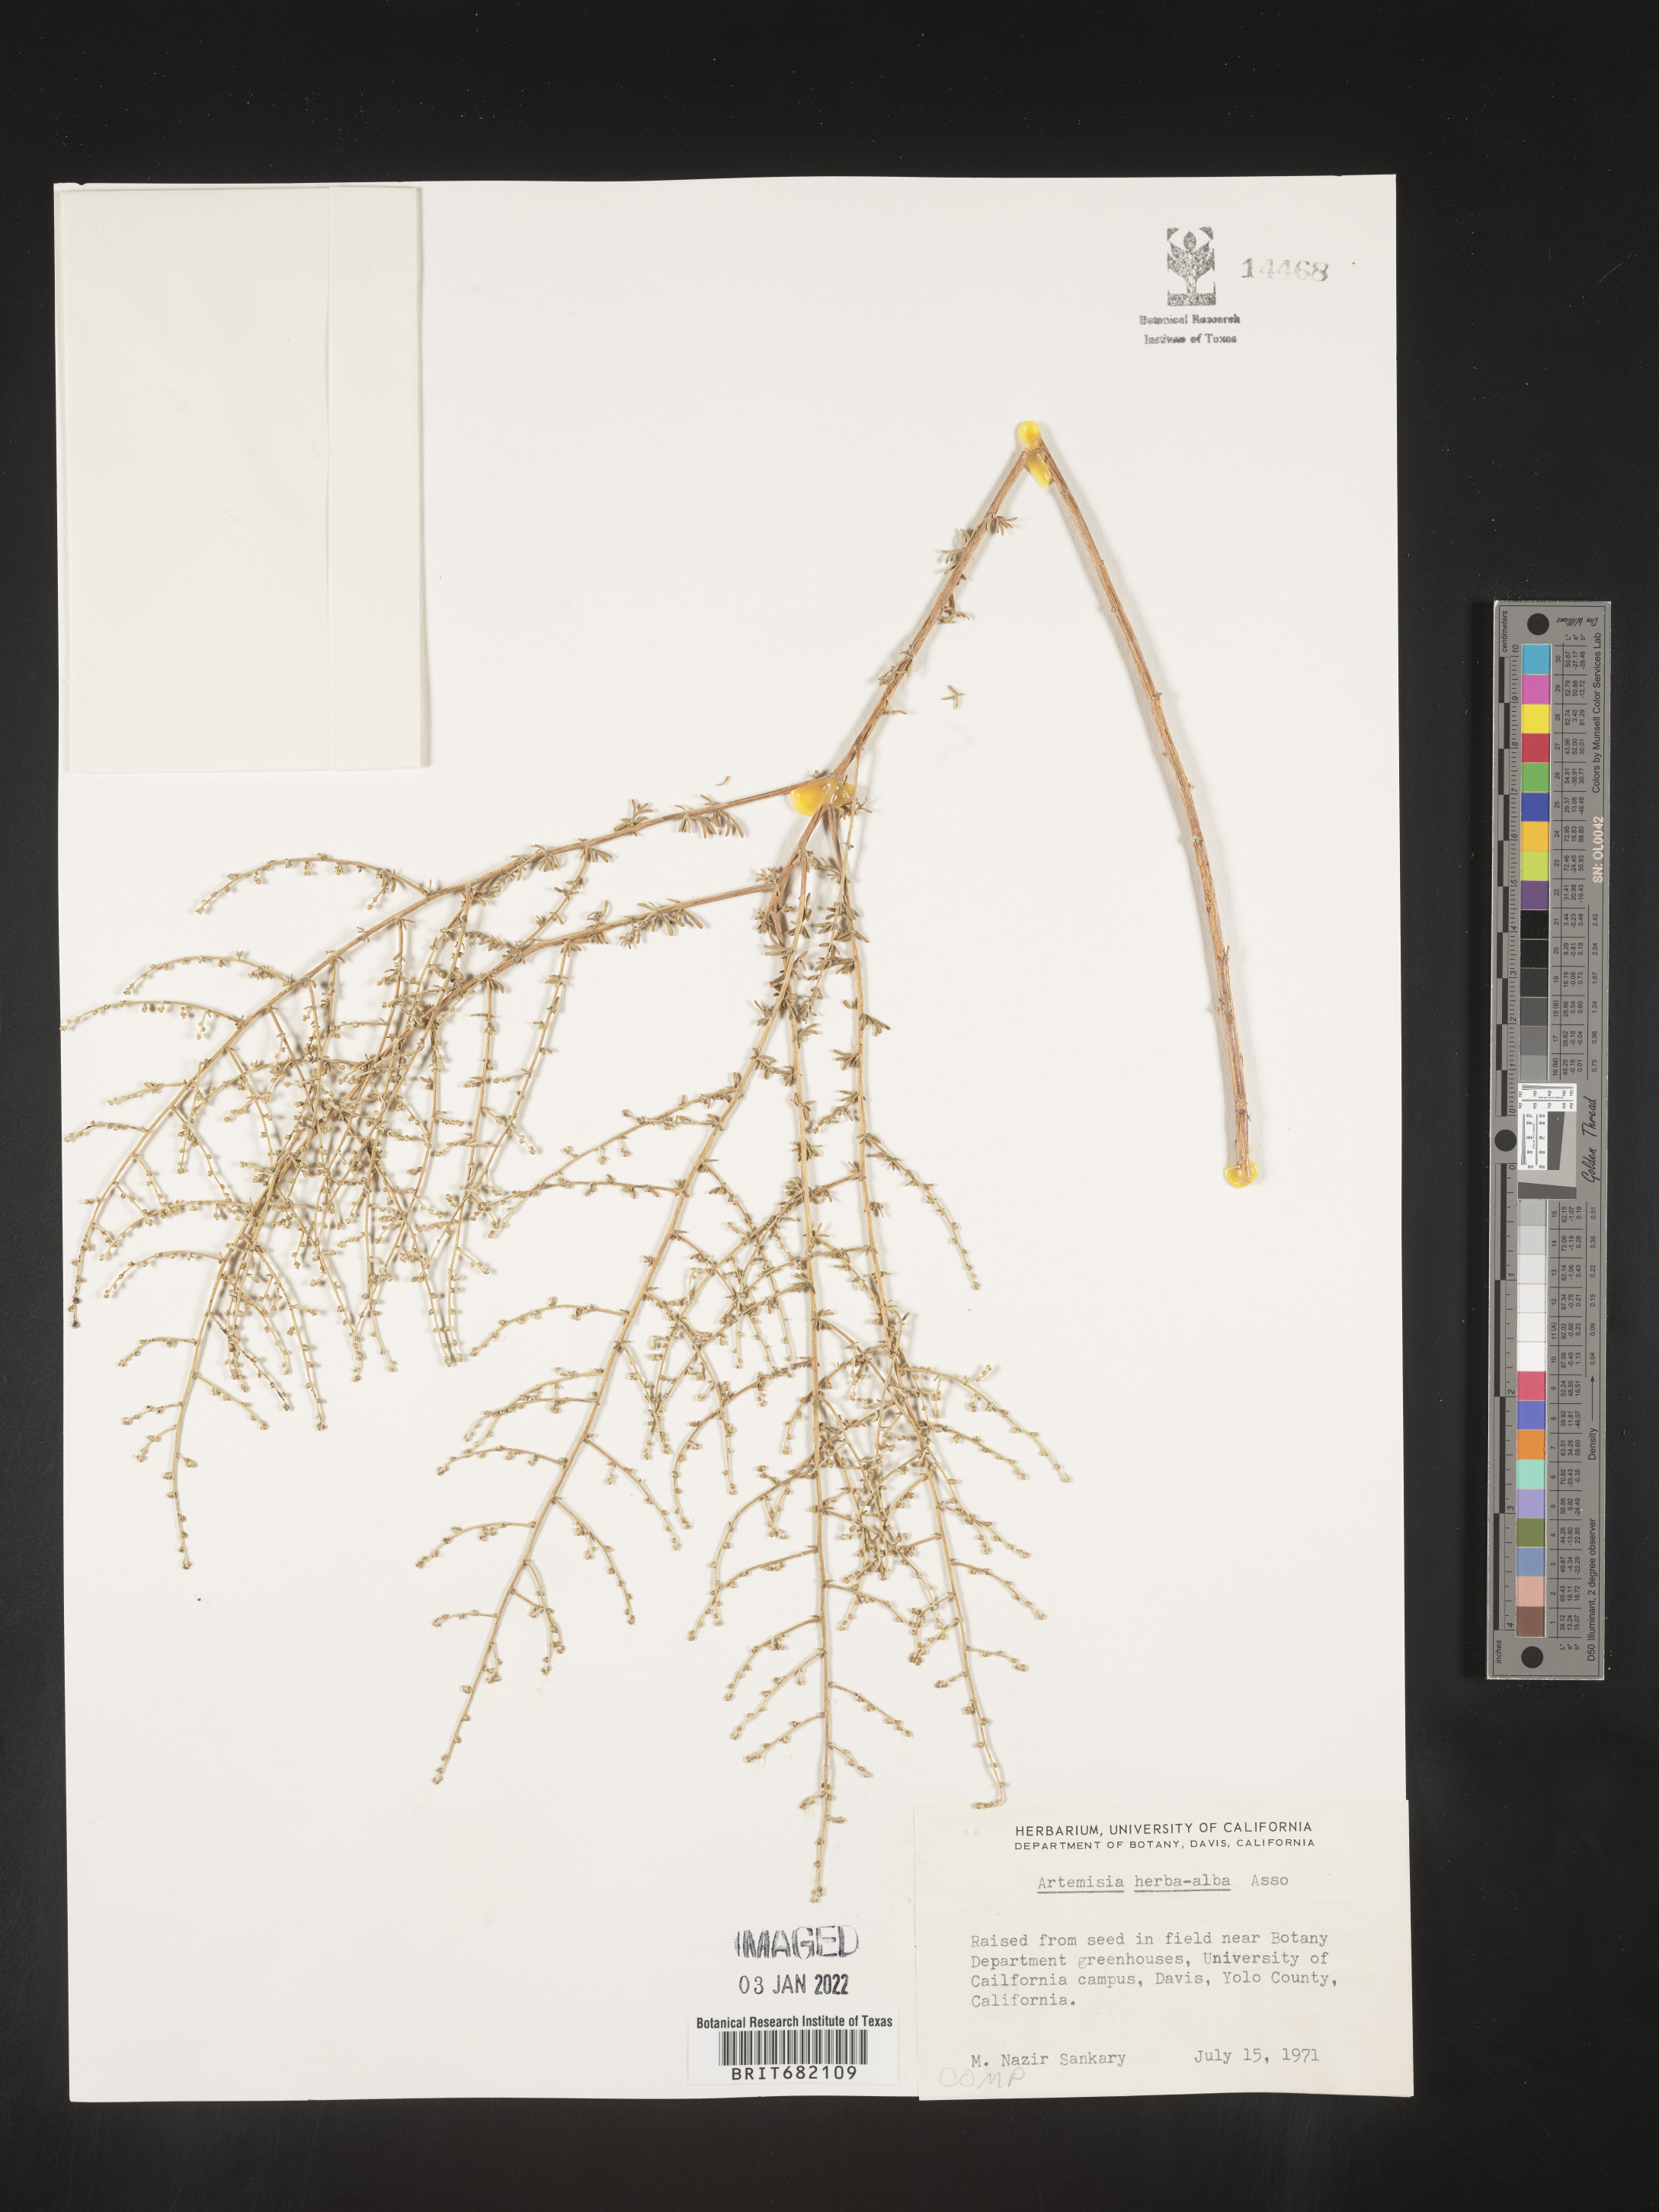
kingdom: Plantae
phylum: Tracheophyta
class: Magnoliopsida
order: Asterales
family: Asteraceae
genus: Artemisia
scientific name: Artemisia herba-alba
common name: White wormwood
